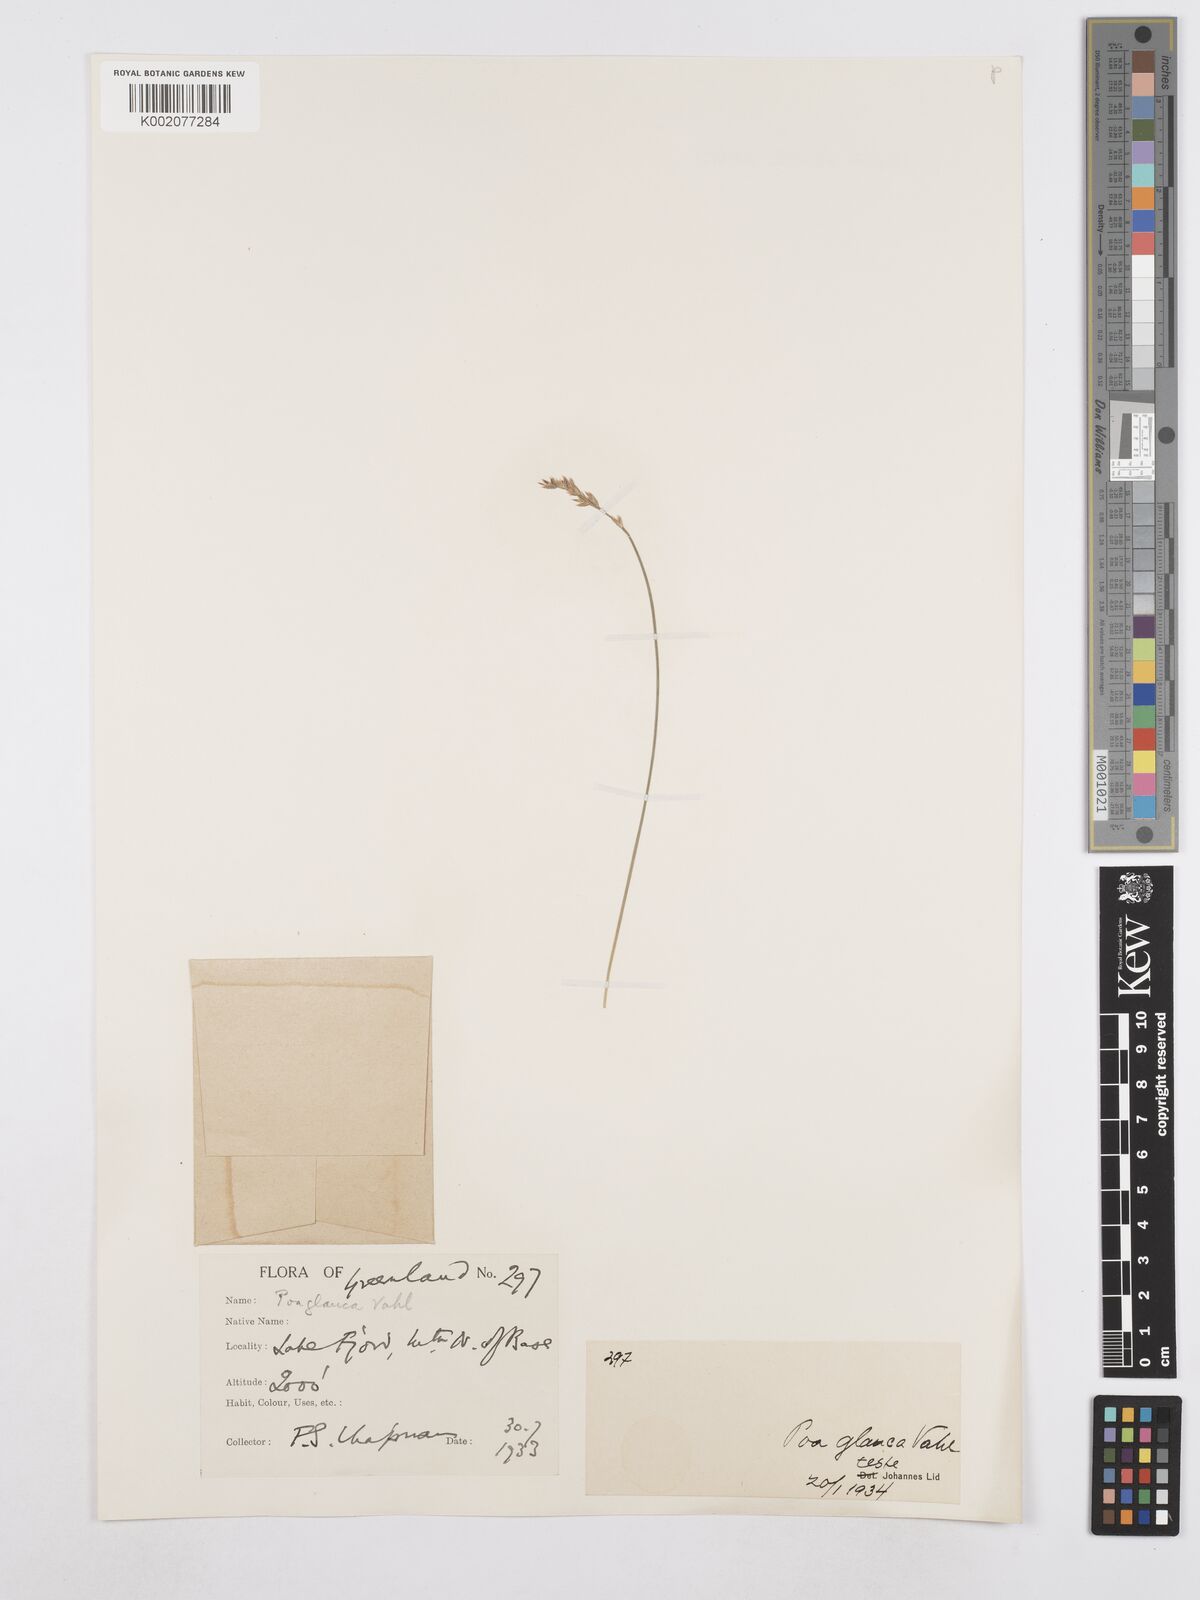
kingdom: Plantae
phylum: Tracheophyta
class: Liliopsida
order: Poales
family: Poaceae
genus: Poa
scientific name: Poa glauca
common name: Glaucous bluegrass
